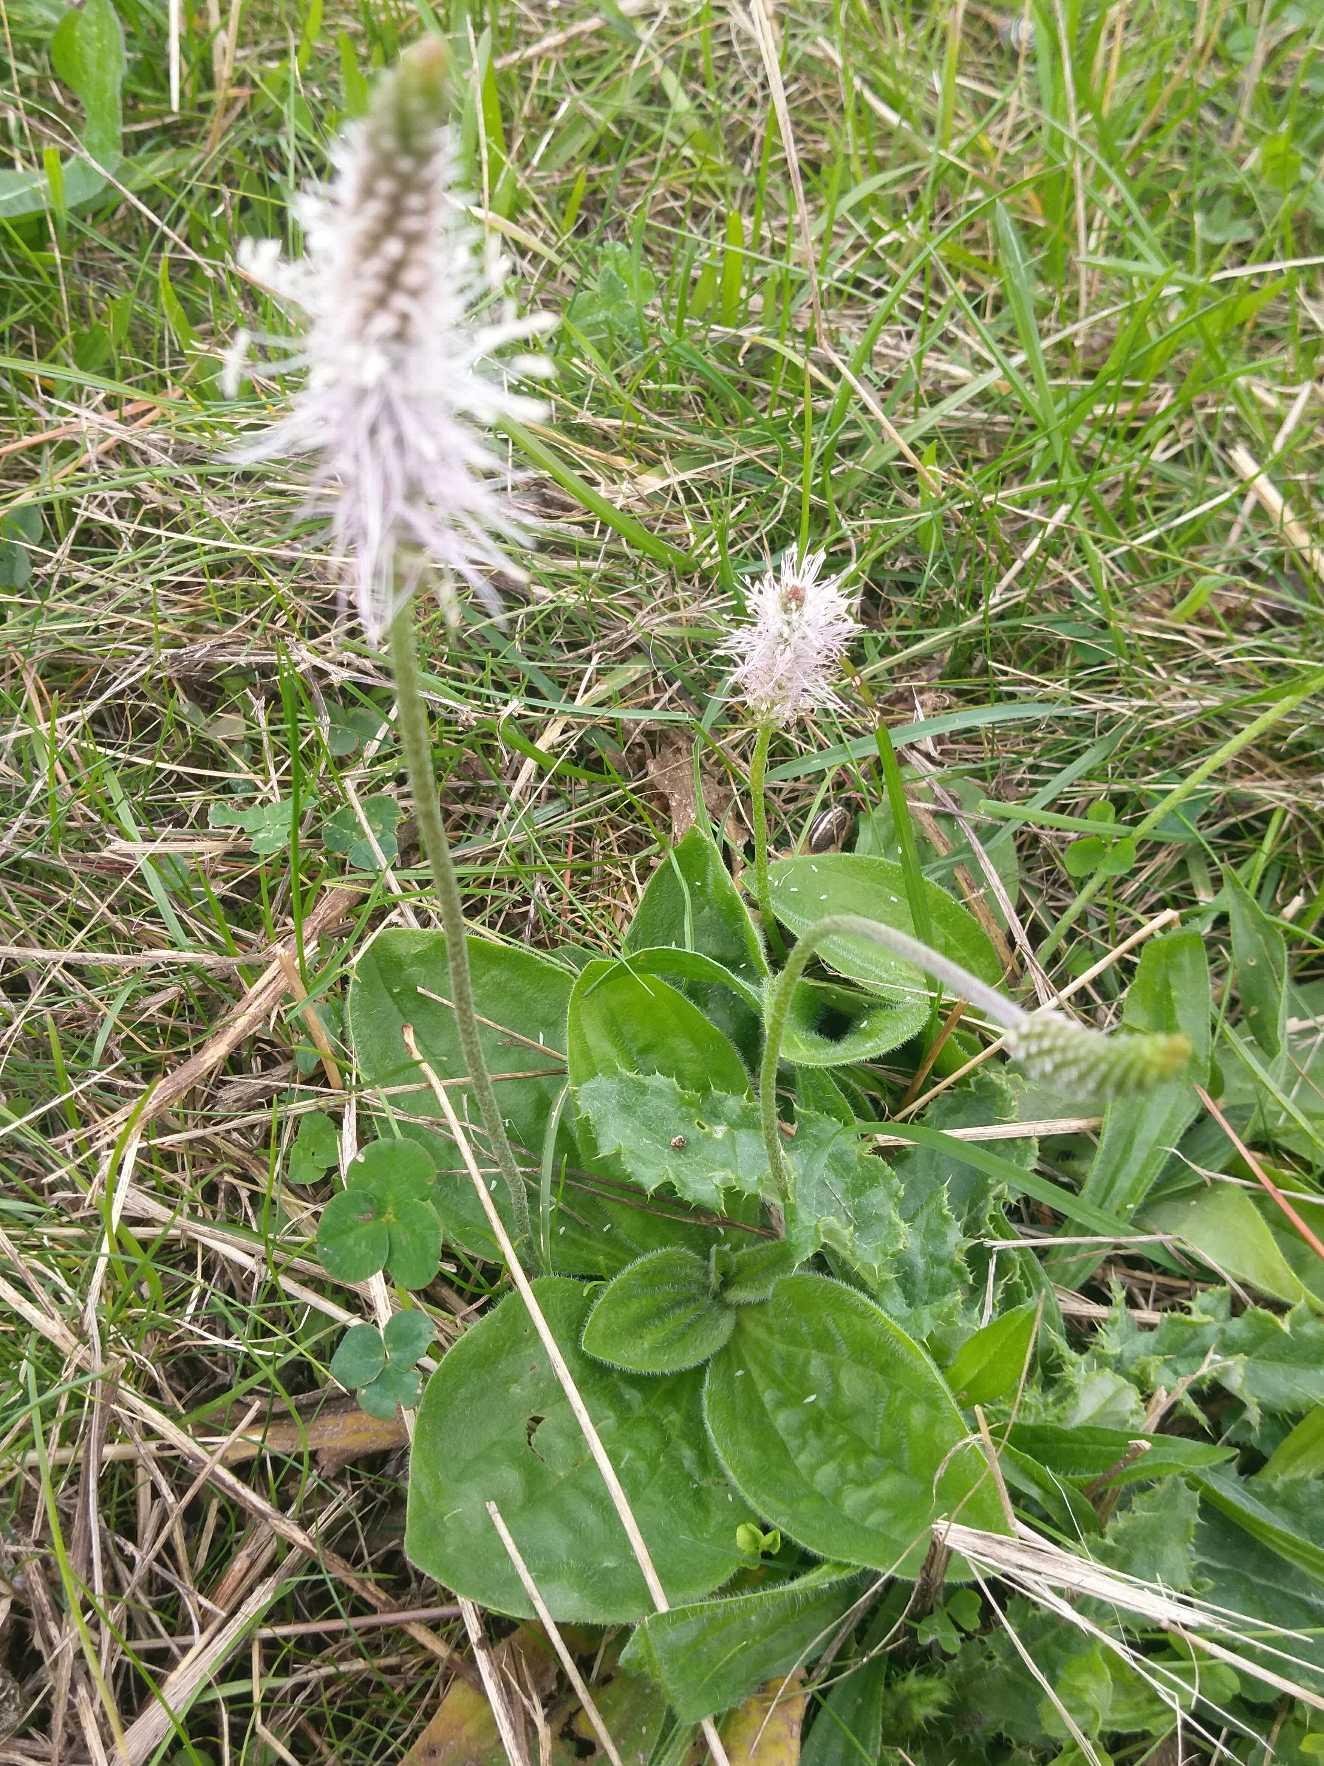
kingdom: Plantae
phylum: Tracheophyta
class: Magnoliopsida
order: Lamiales
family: Plantaginaceae
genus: Plantago
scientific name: Plantago media
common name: Dunet vejbred
